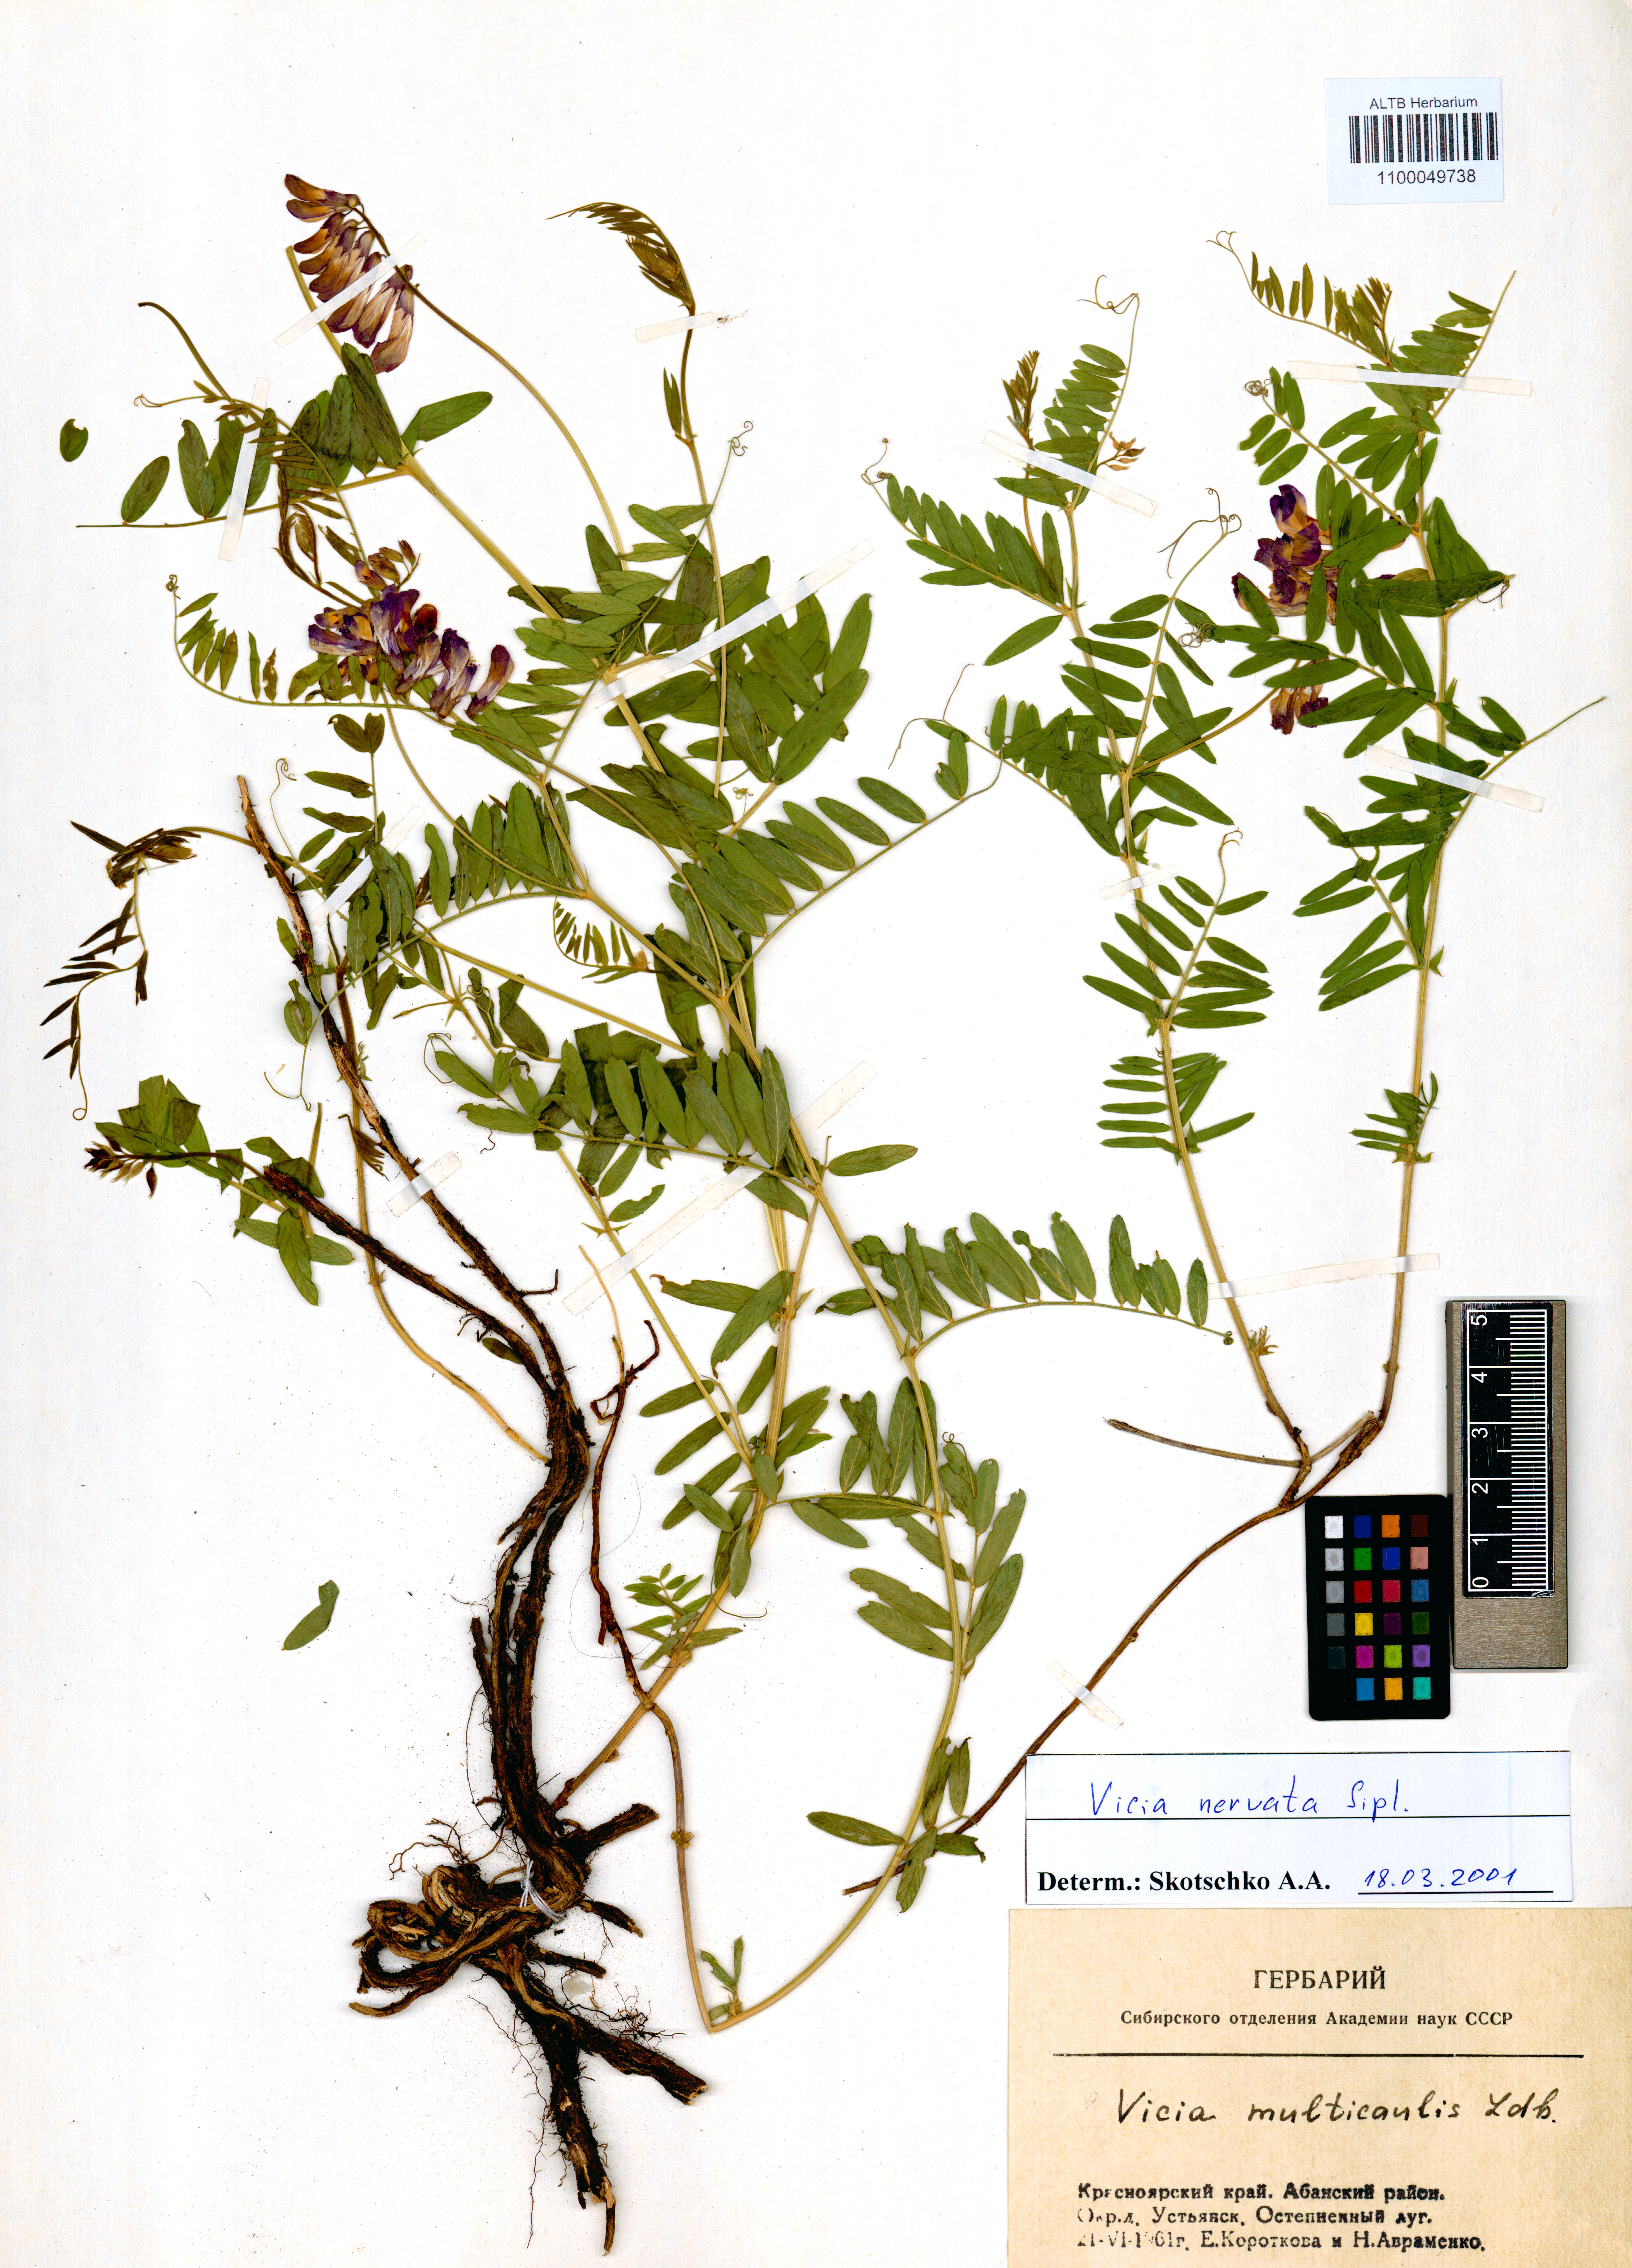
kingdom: Plantae
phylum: Tracheophyta
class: Magnoliopsida
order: Fabales
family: Fabaceae
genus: Vicia
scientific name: Vicia multicaulis
